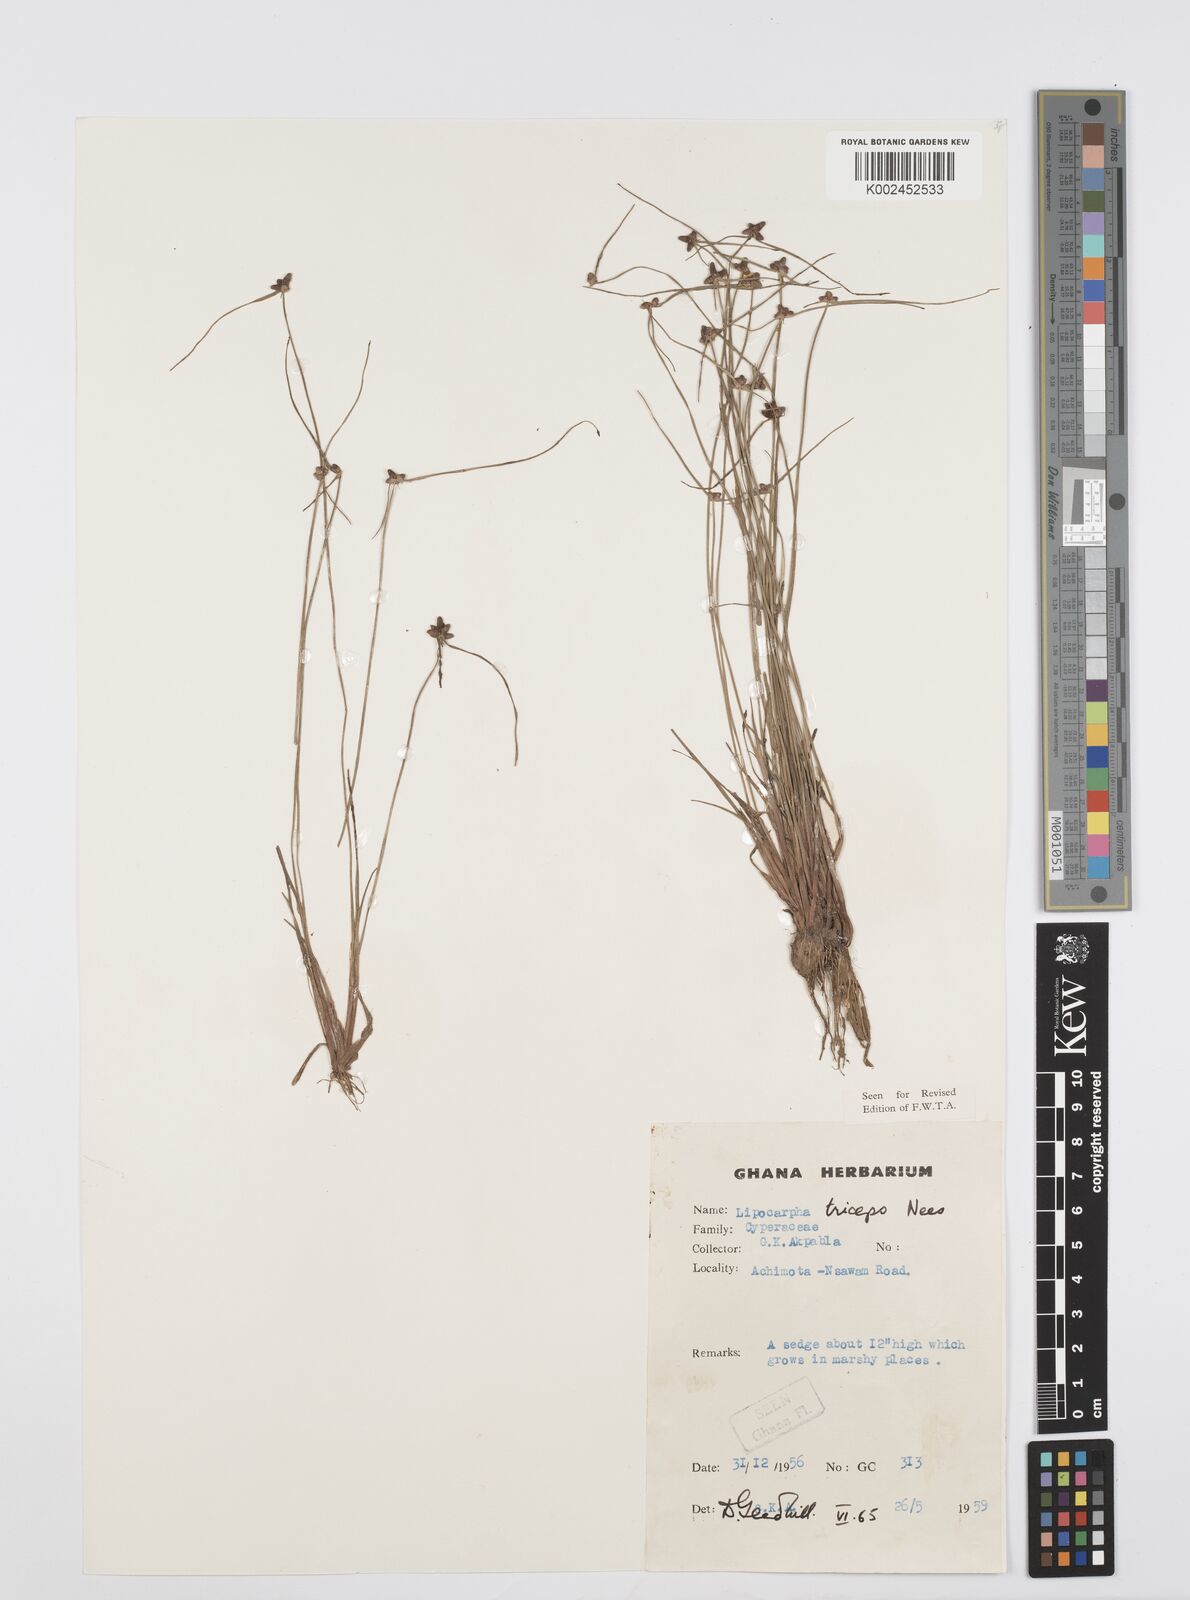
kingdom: Plantae
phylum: Tracheophyta
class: Liliopsida
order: Poales
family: Cyperaceae
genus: Cyperus
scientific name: Cyperus filiformis
